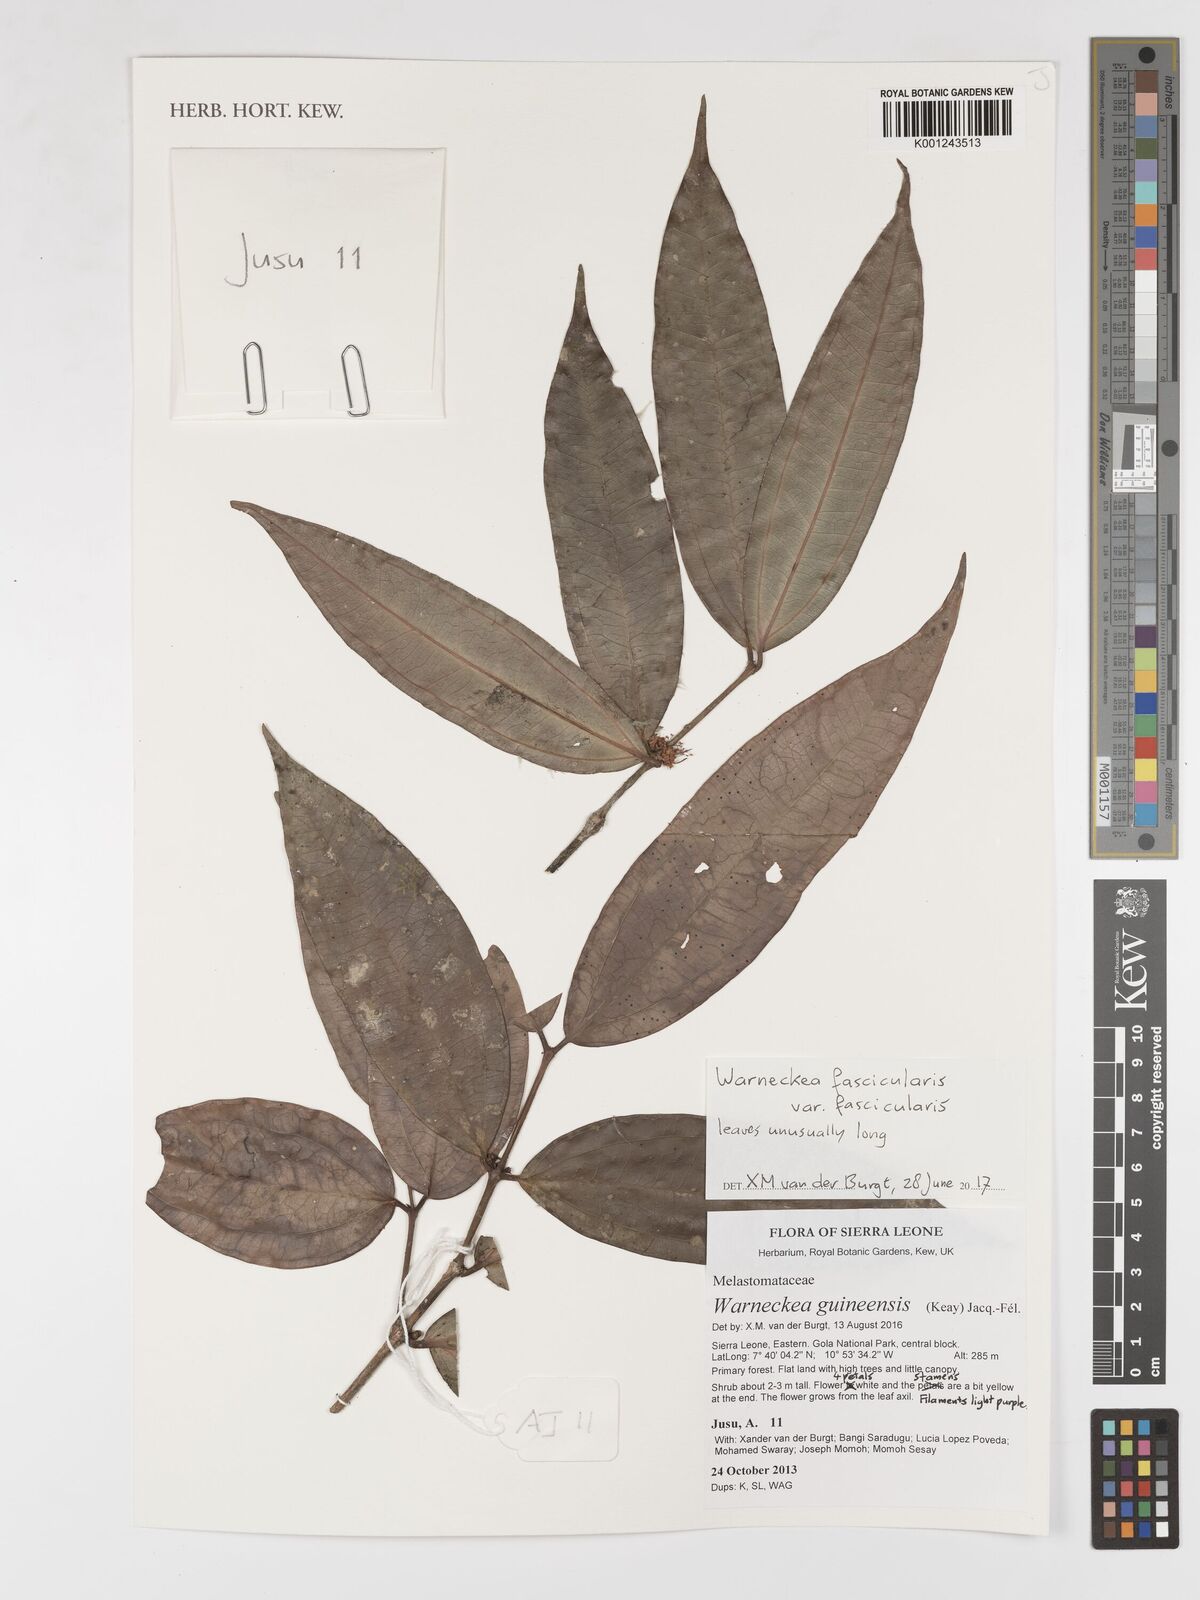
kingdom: Plantae
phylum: Tracheophyta
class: Magnoliopsida
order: Myrtales
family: Melastomataceae
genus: Warneckea
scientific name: Warneckea fascicularis
